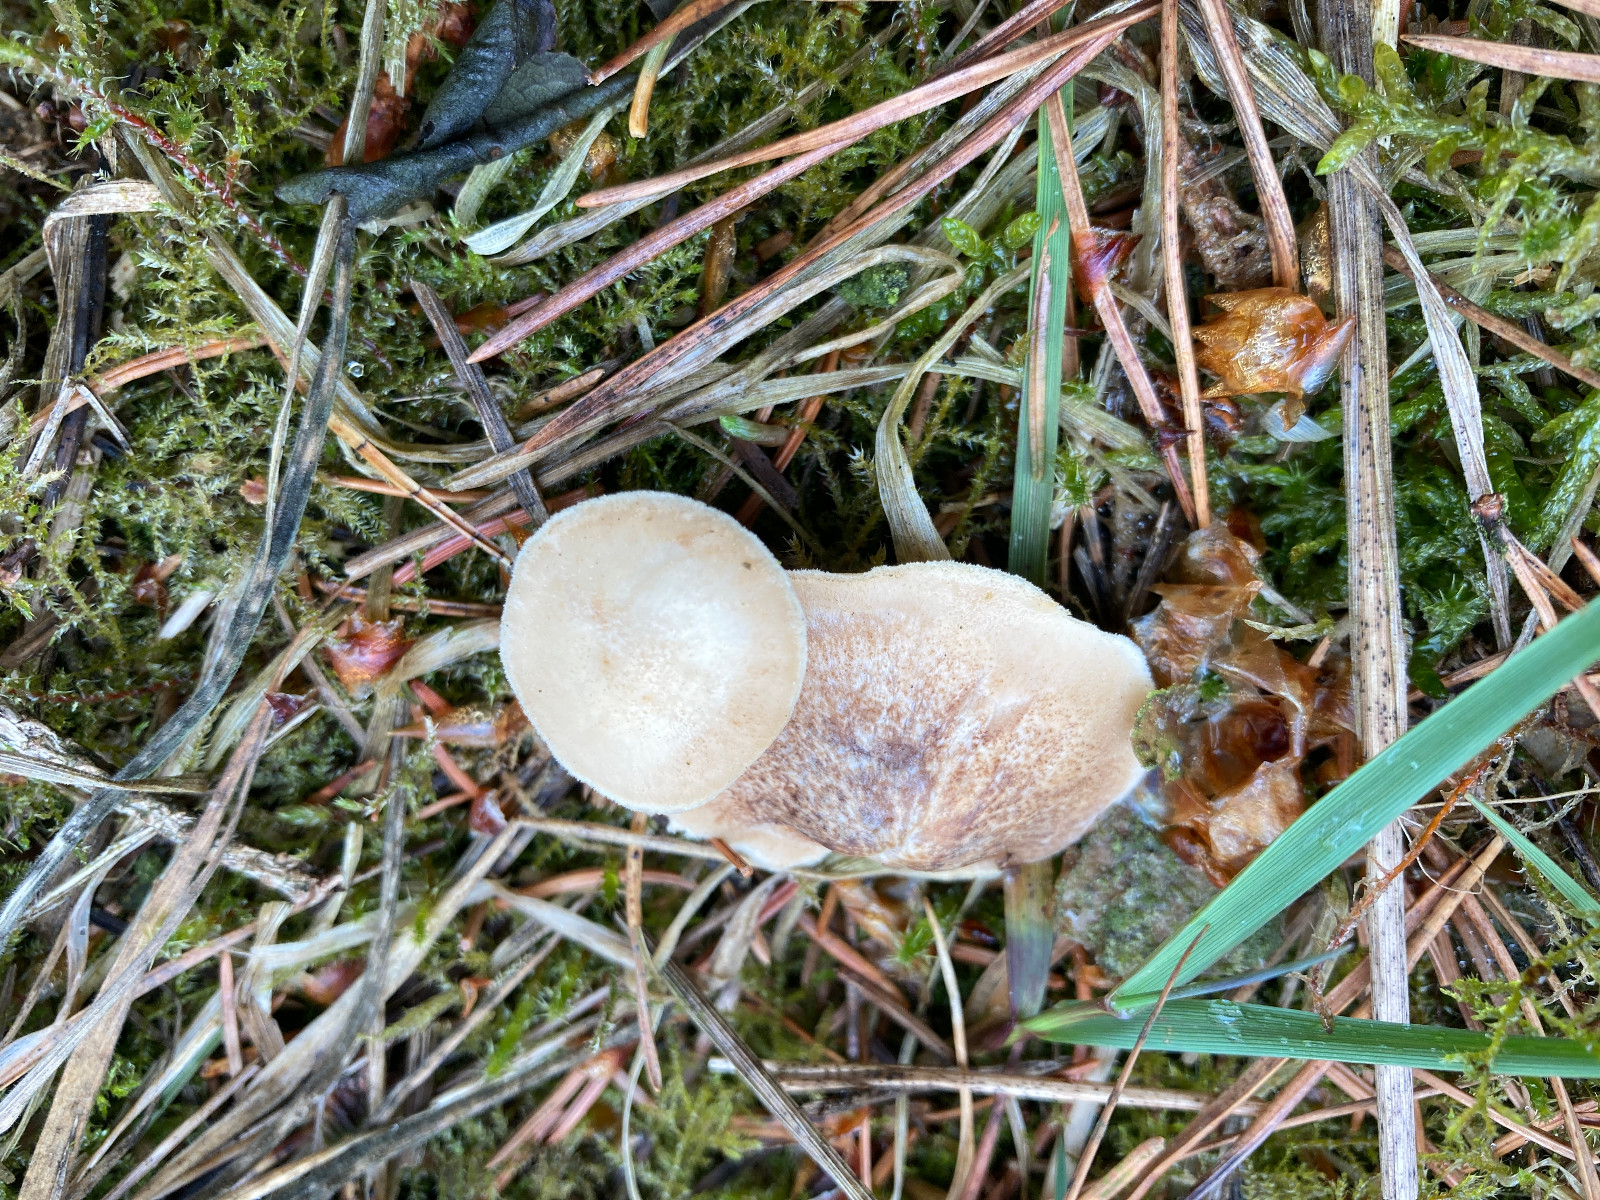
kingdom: Fungi
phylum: Basidiomycota
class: Agaricomycetes
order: Polyporales
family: Polyporaceae
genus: Lentinus
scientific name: Lentinus substrictus
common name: forårs-stilkporesvamp
